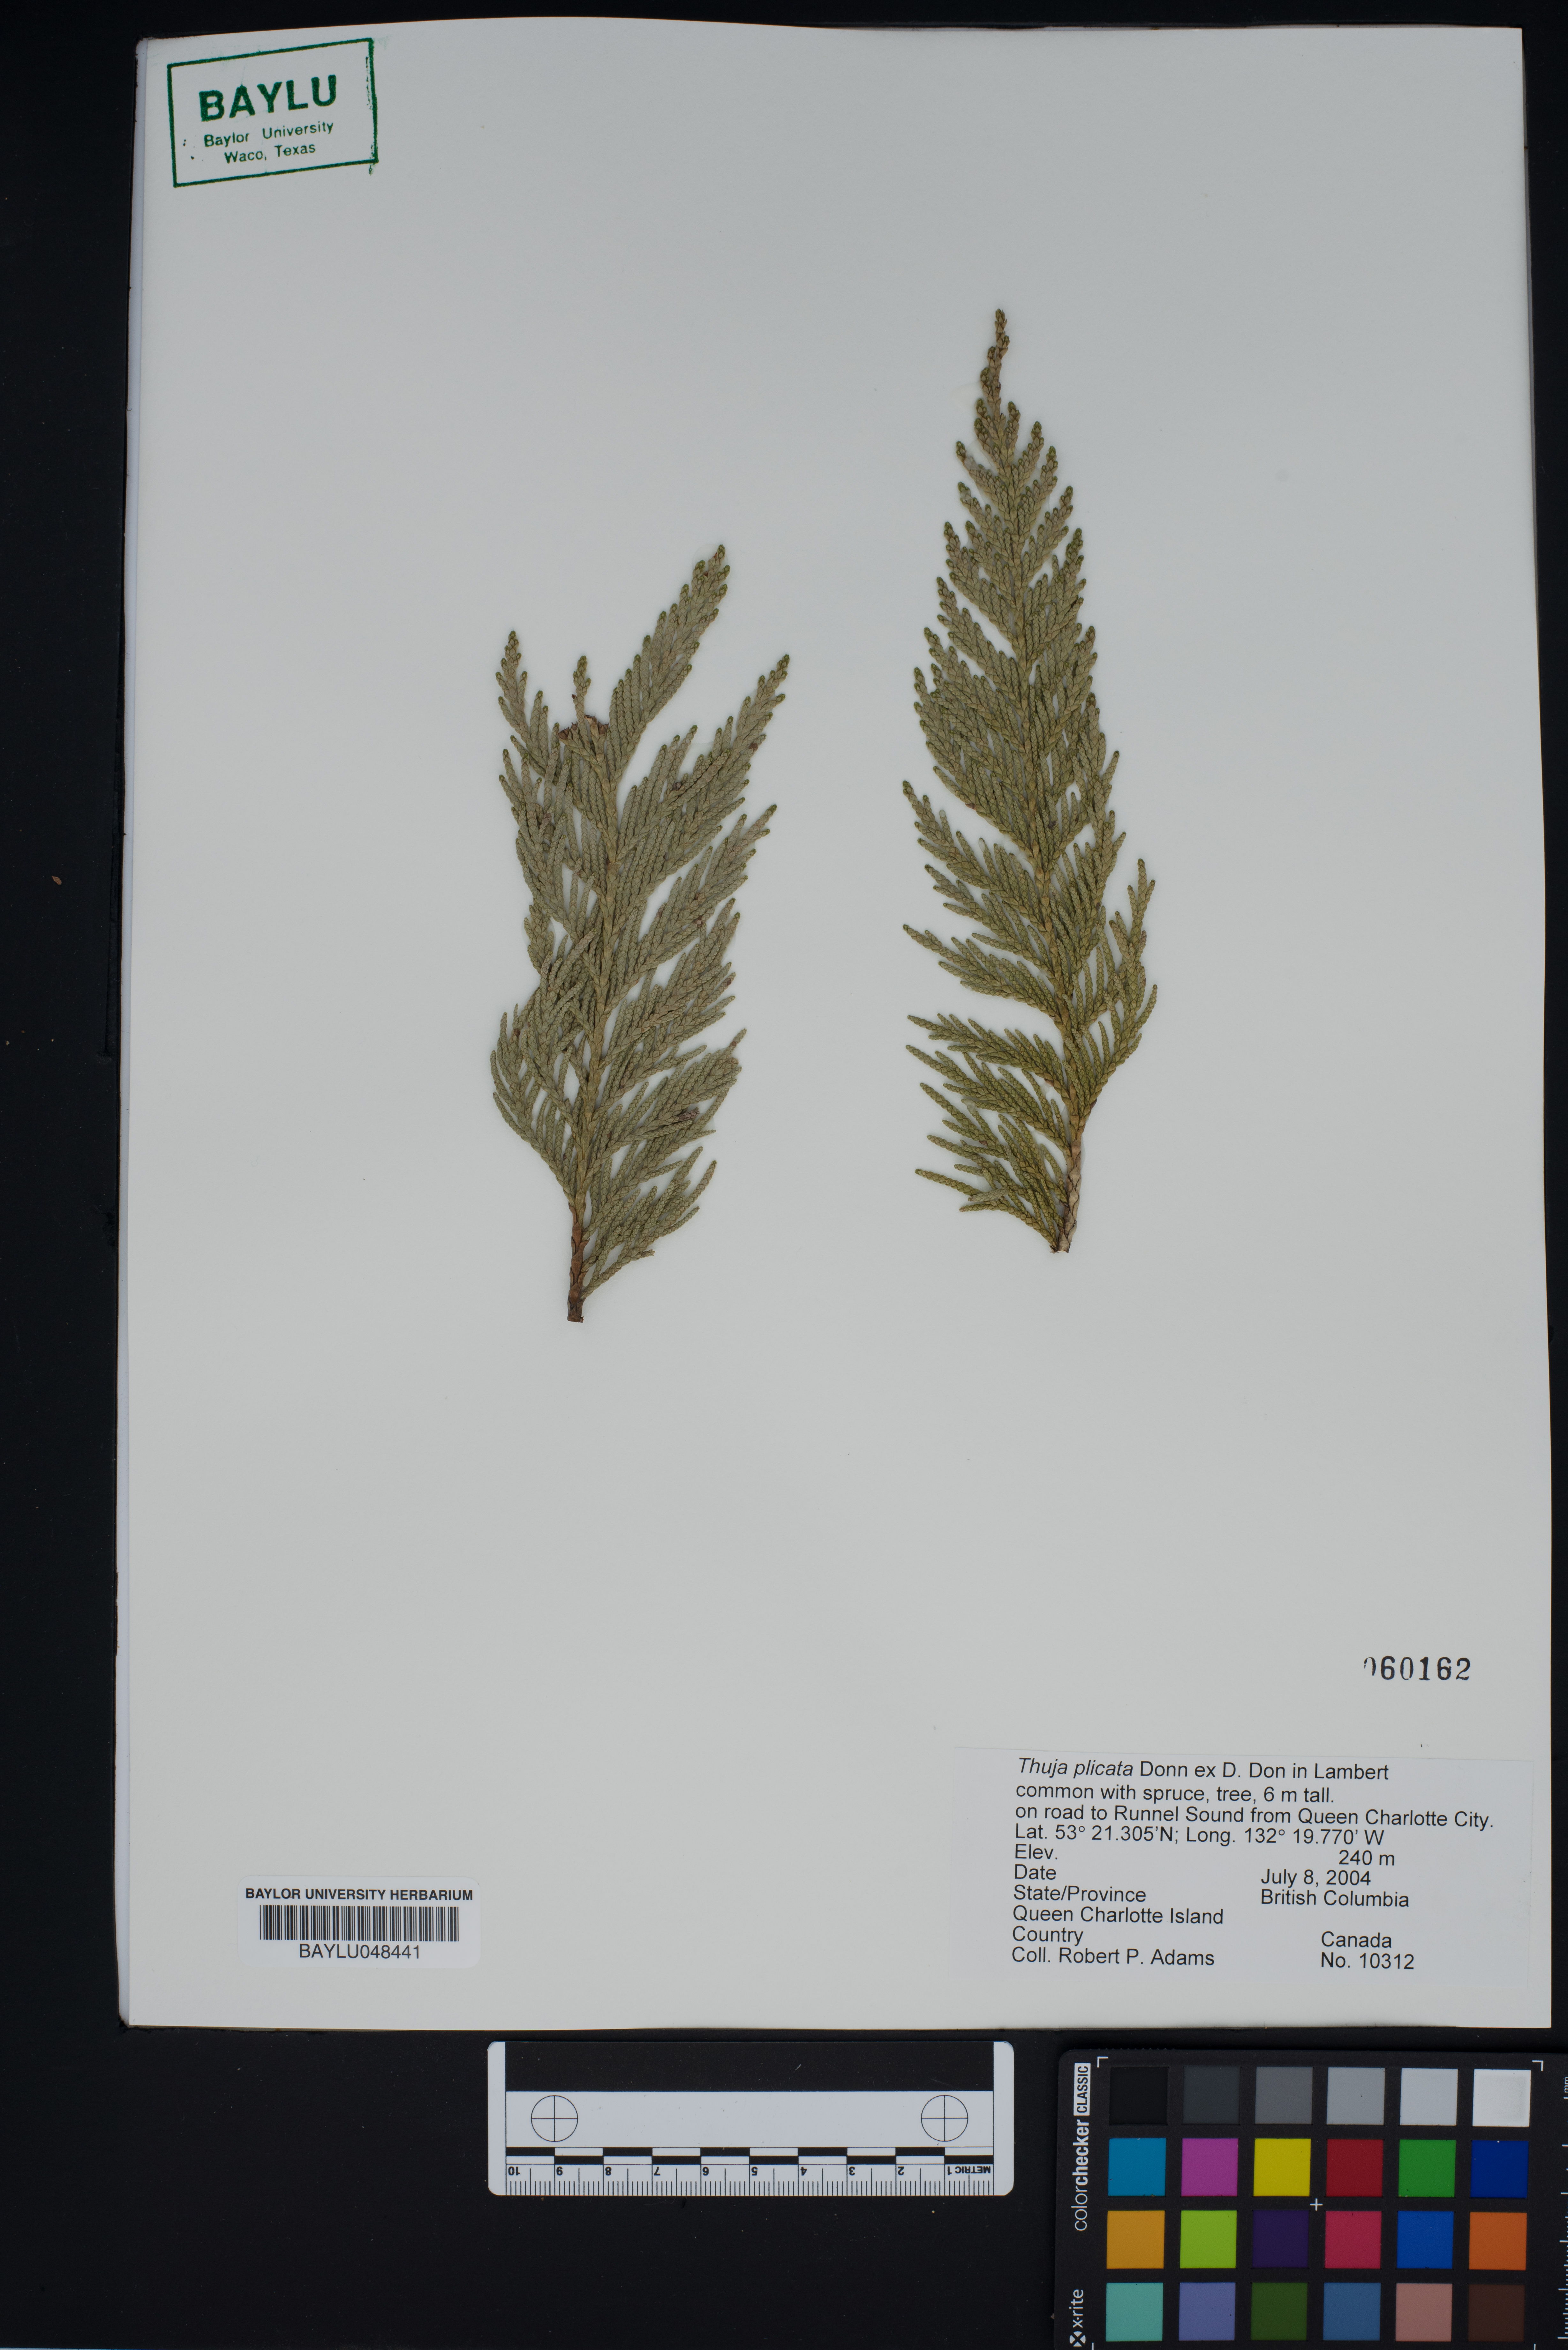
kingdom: Plantae
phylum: Tracheophyta
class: Pinopsida
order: Pinales
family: Cupressaceae
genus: Thuja
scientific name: Thuja plicata
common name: Western red-cedar
